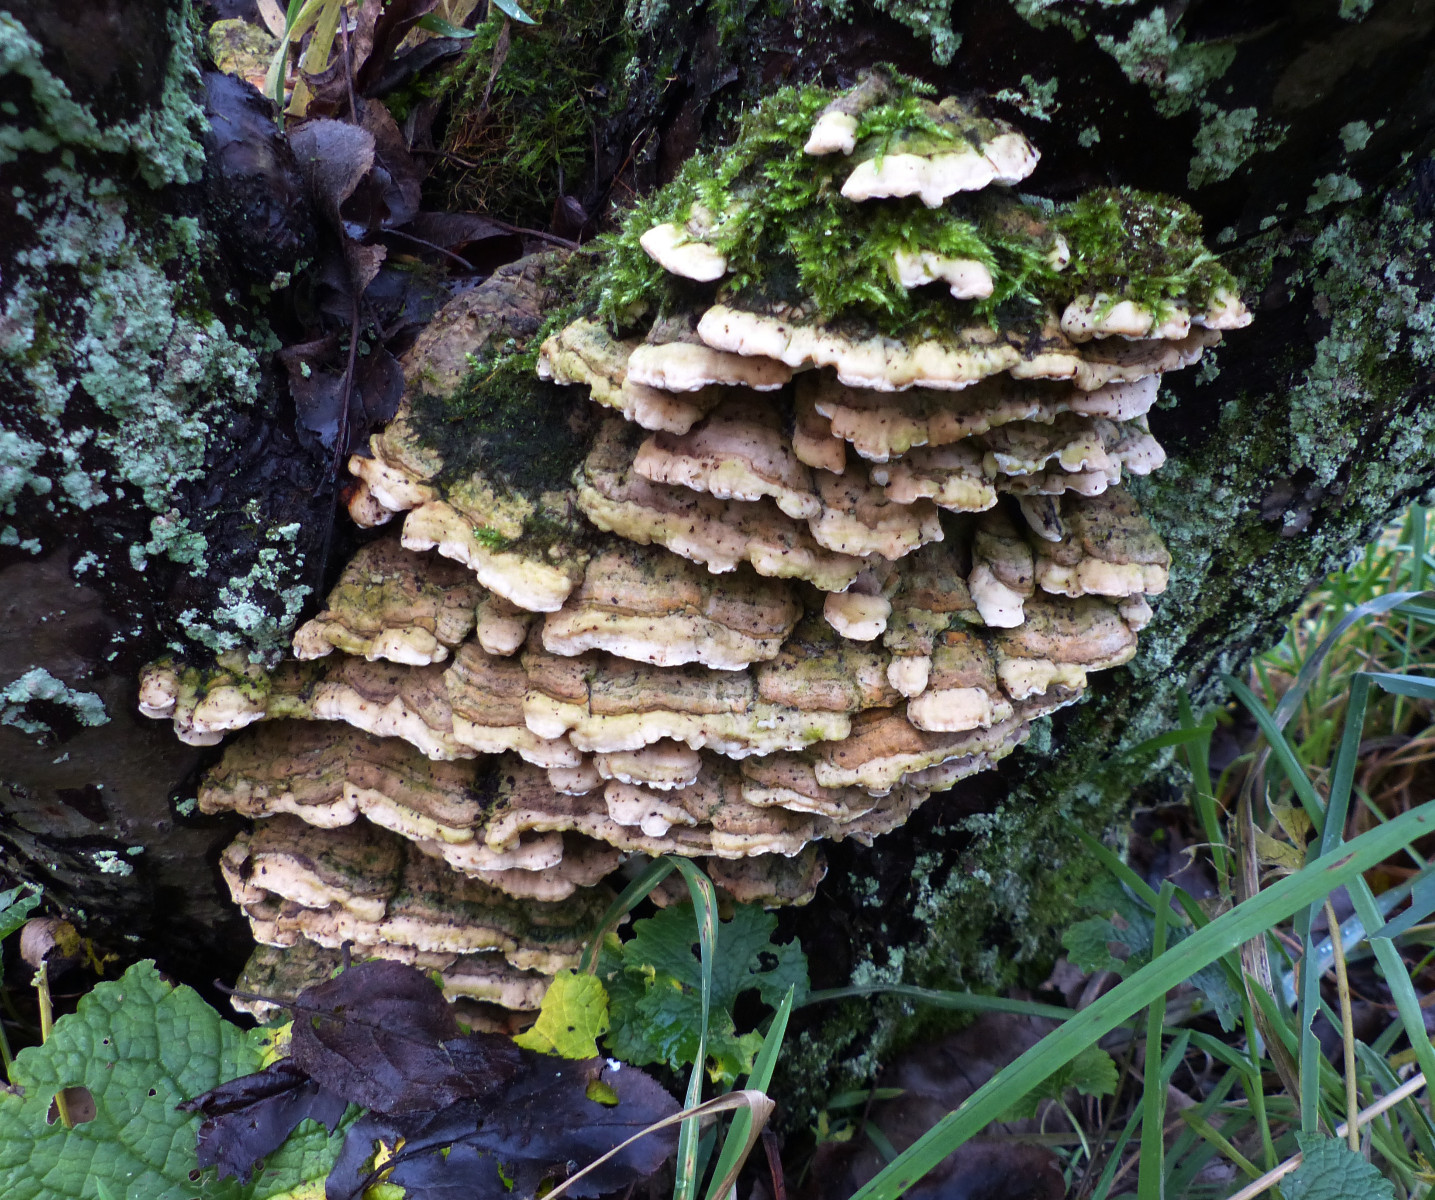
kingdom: Fungi
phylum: Basidiomycota
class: Agaricomycetes
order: Hymenochaetales
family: Oxyporaceae
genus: Oxyporus
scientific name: Oxyporus populinus
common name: sammenvokset trylleporesvamp
